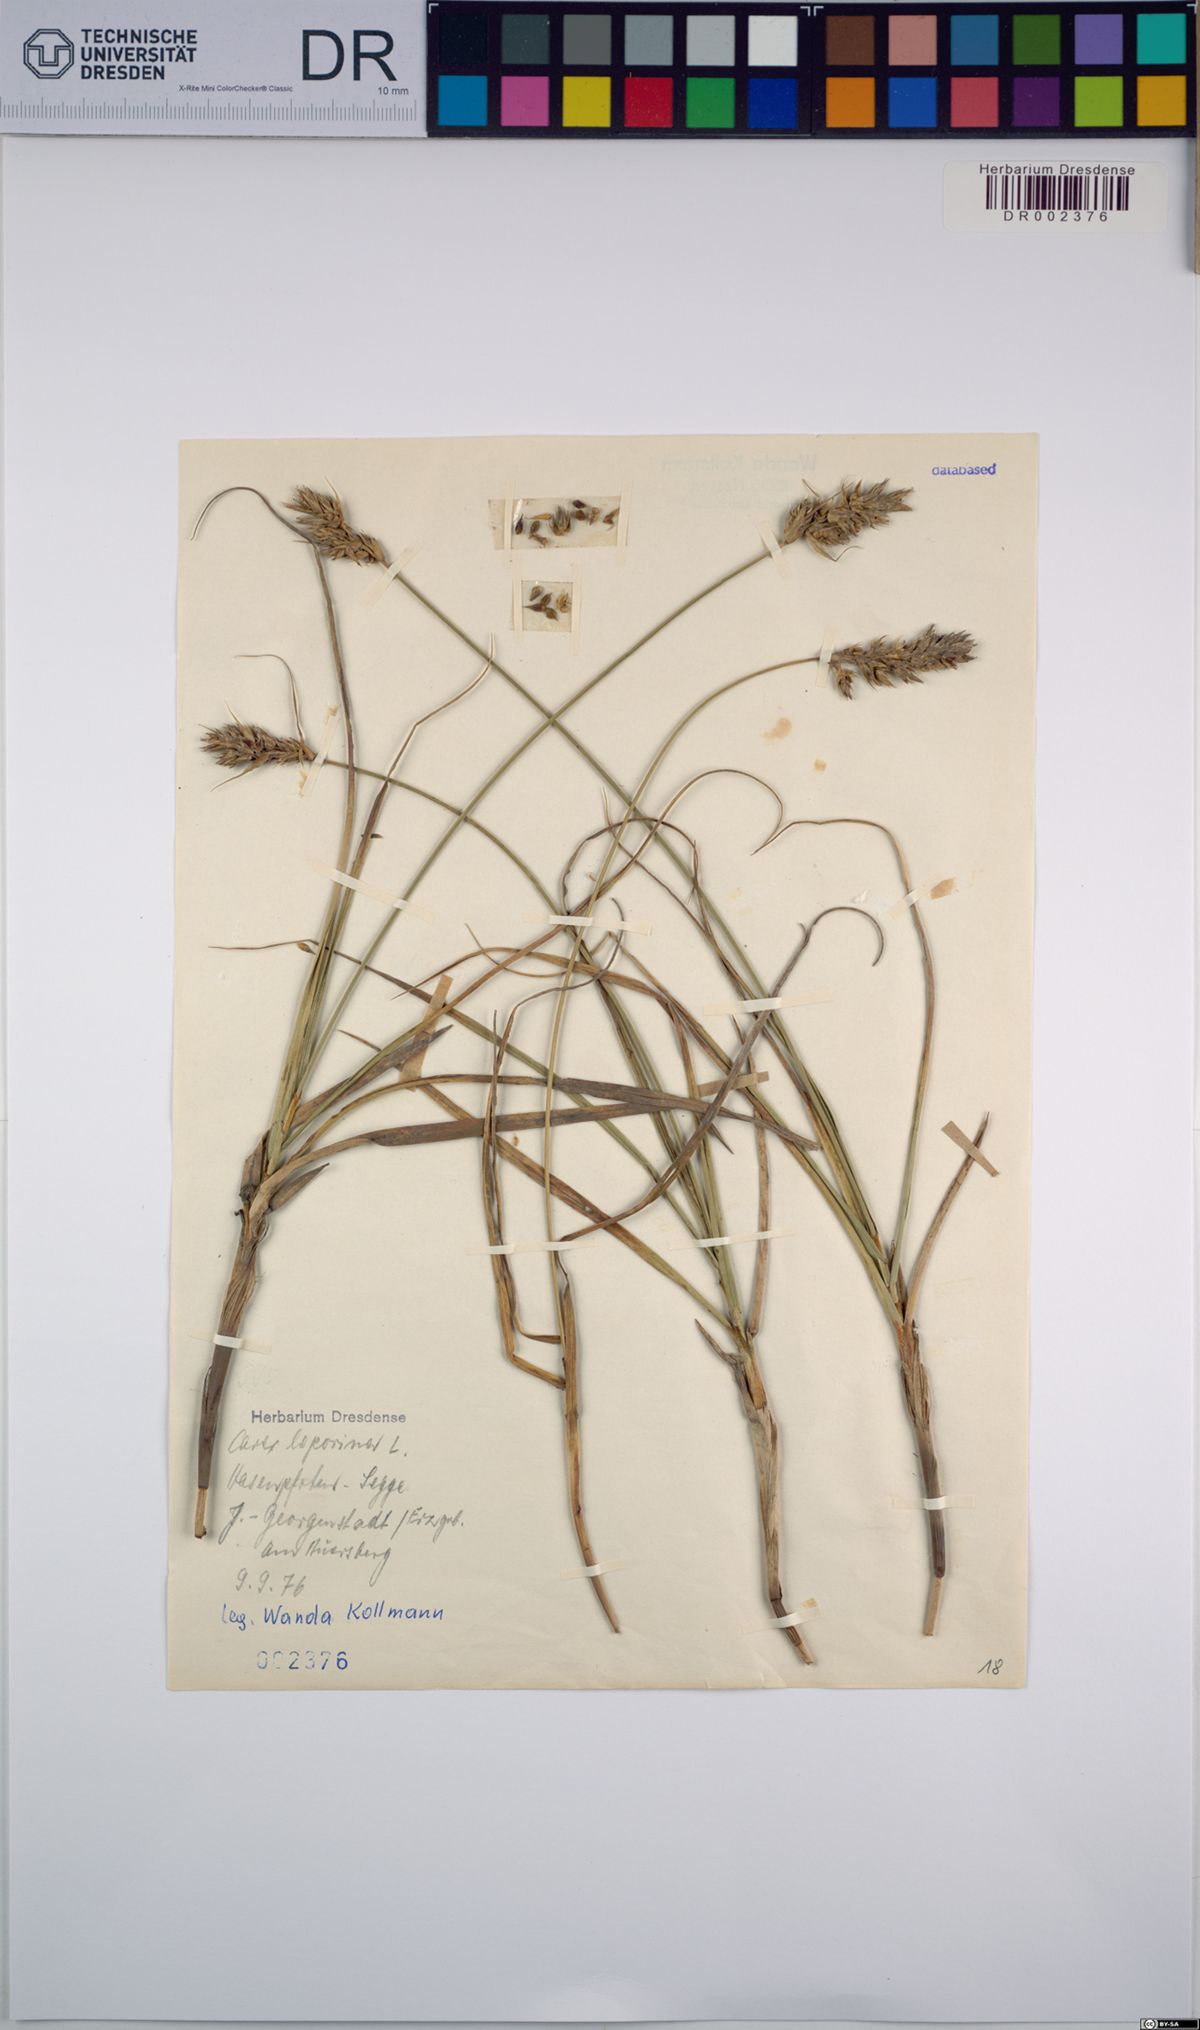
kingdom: Plantae
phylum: Tracheophyta
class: Liliopsida
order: Poales
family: Cyperaceae
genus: Carex
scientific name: Carex leporina
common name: Oval sedge
